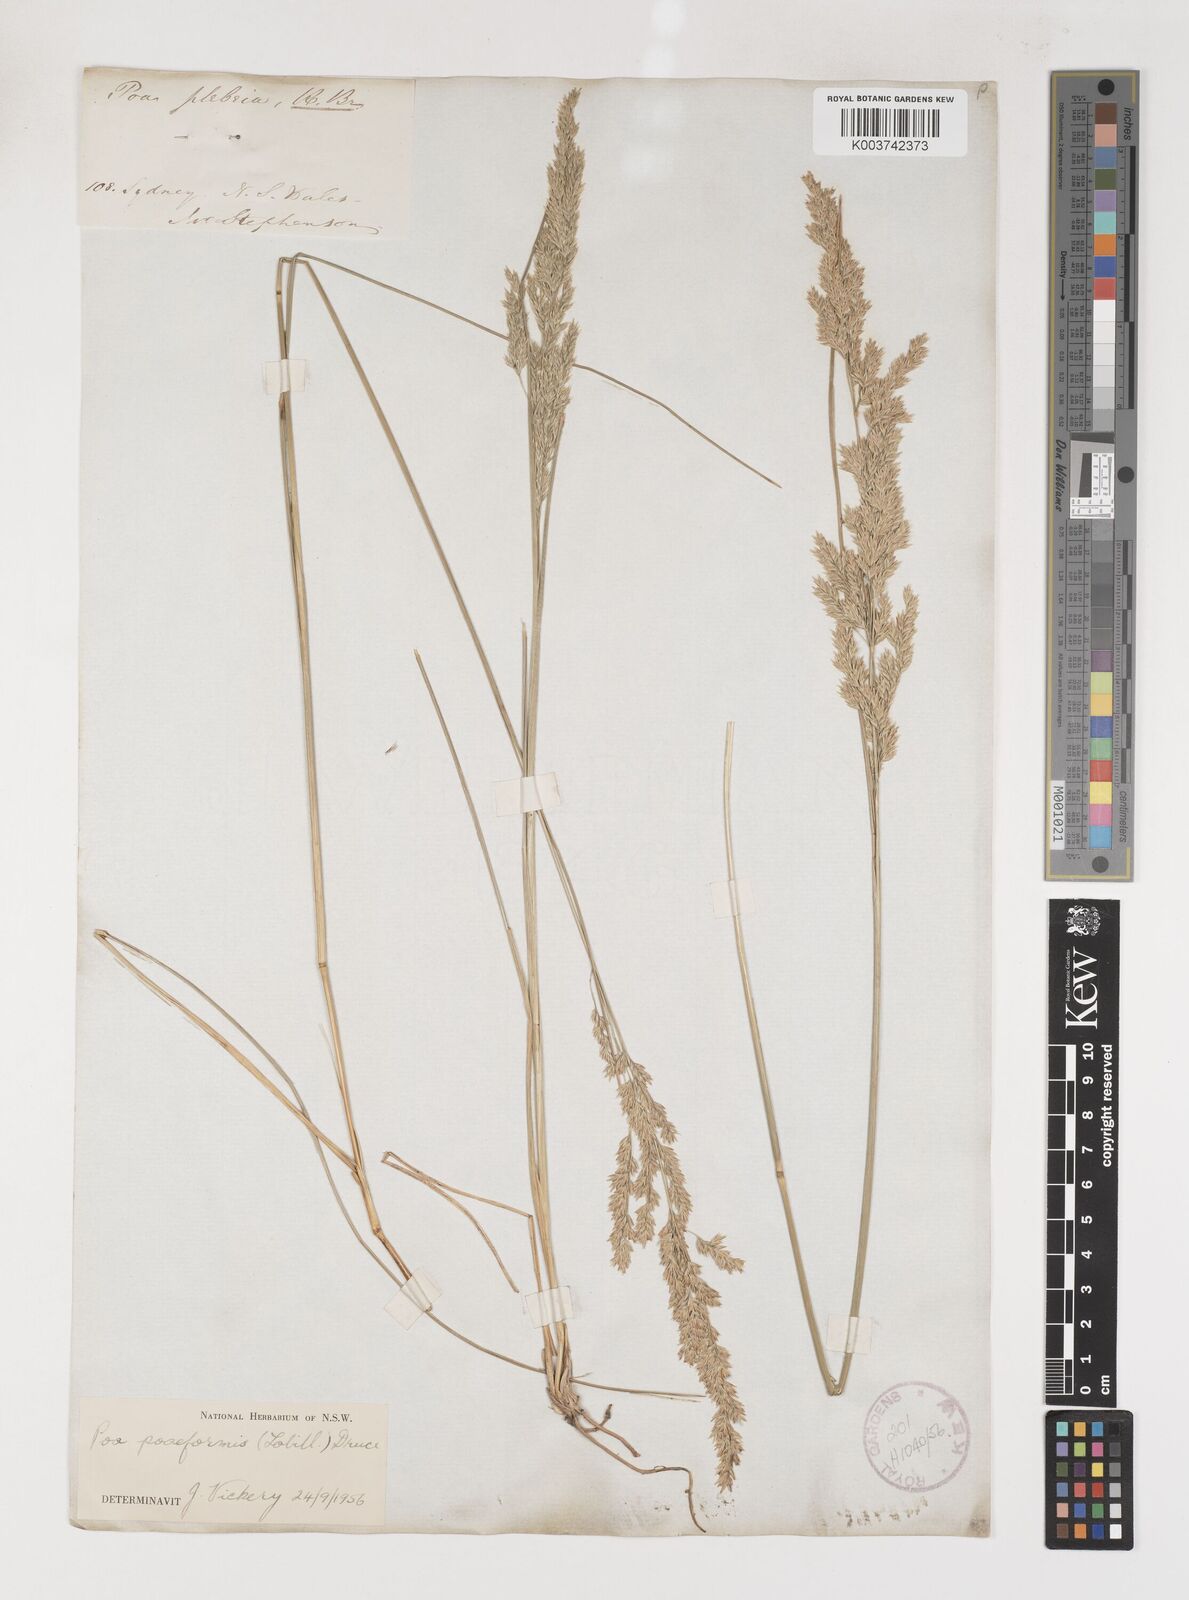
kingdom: Plantae
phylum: Tracheophyta
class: Liliopsida
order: Poales
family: Poaceae
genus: Poa
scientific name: Poa poiformis
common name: Tussock poa
